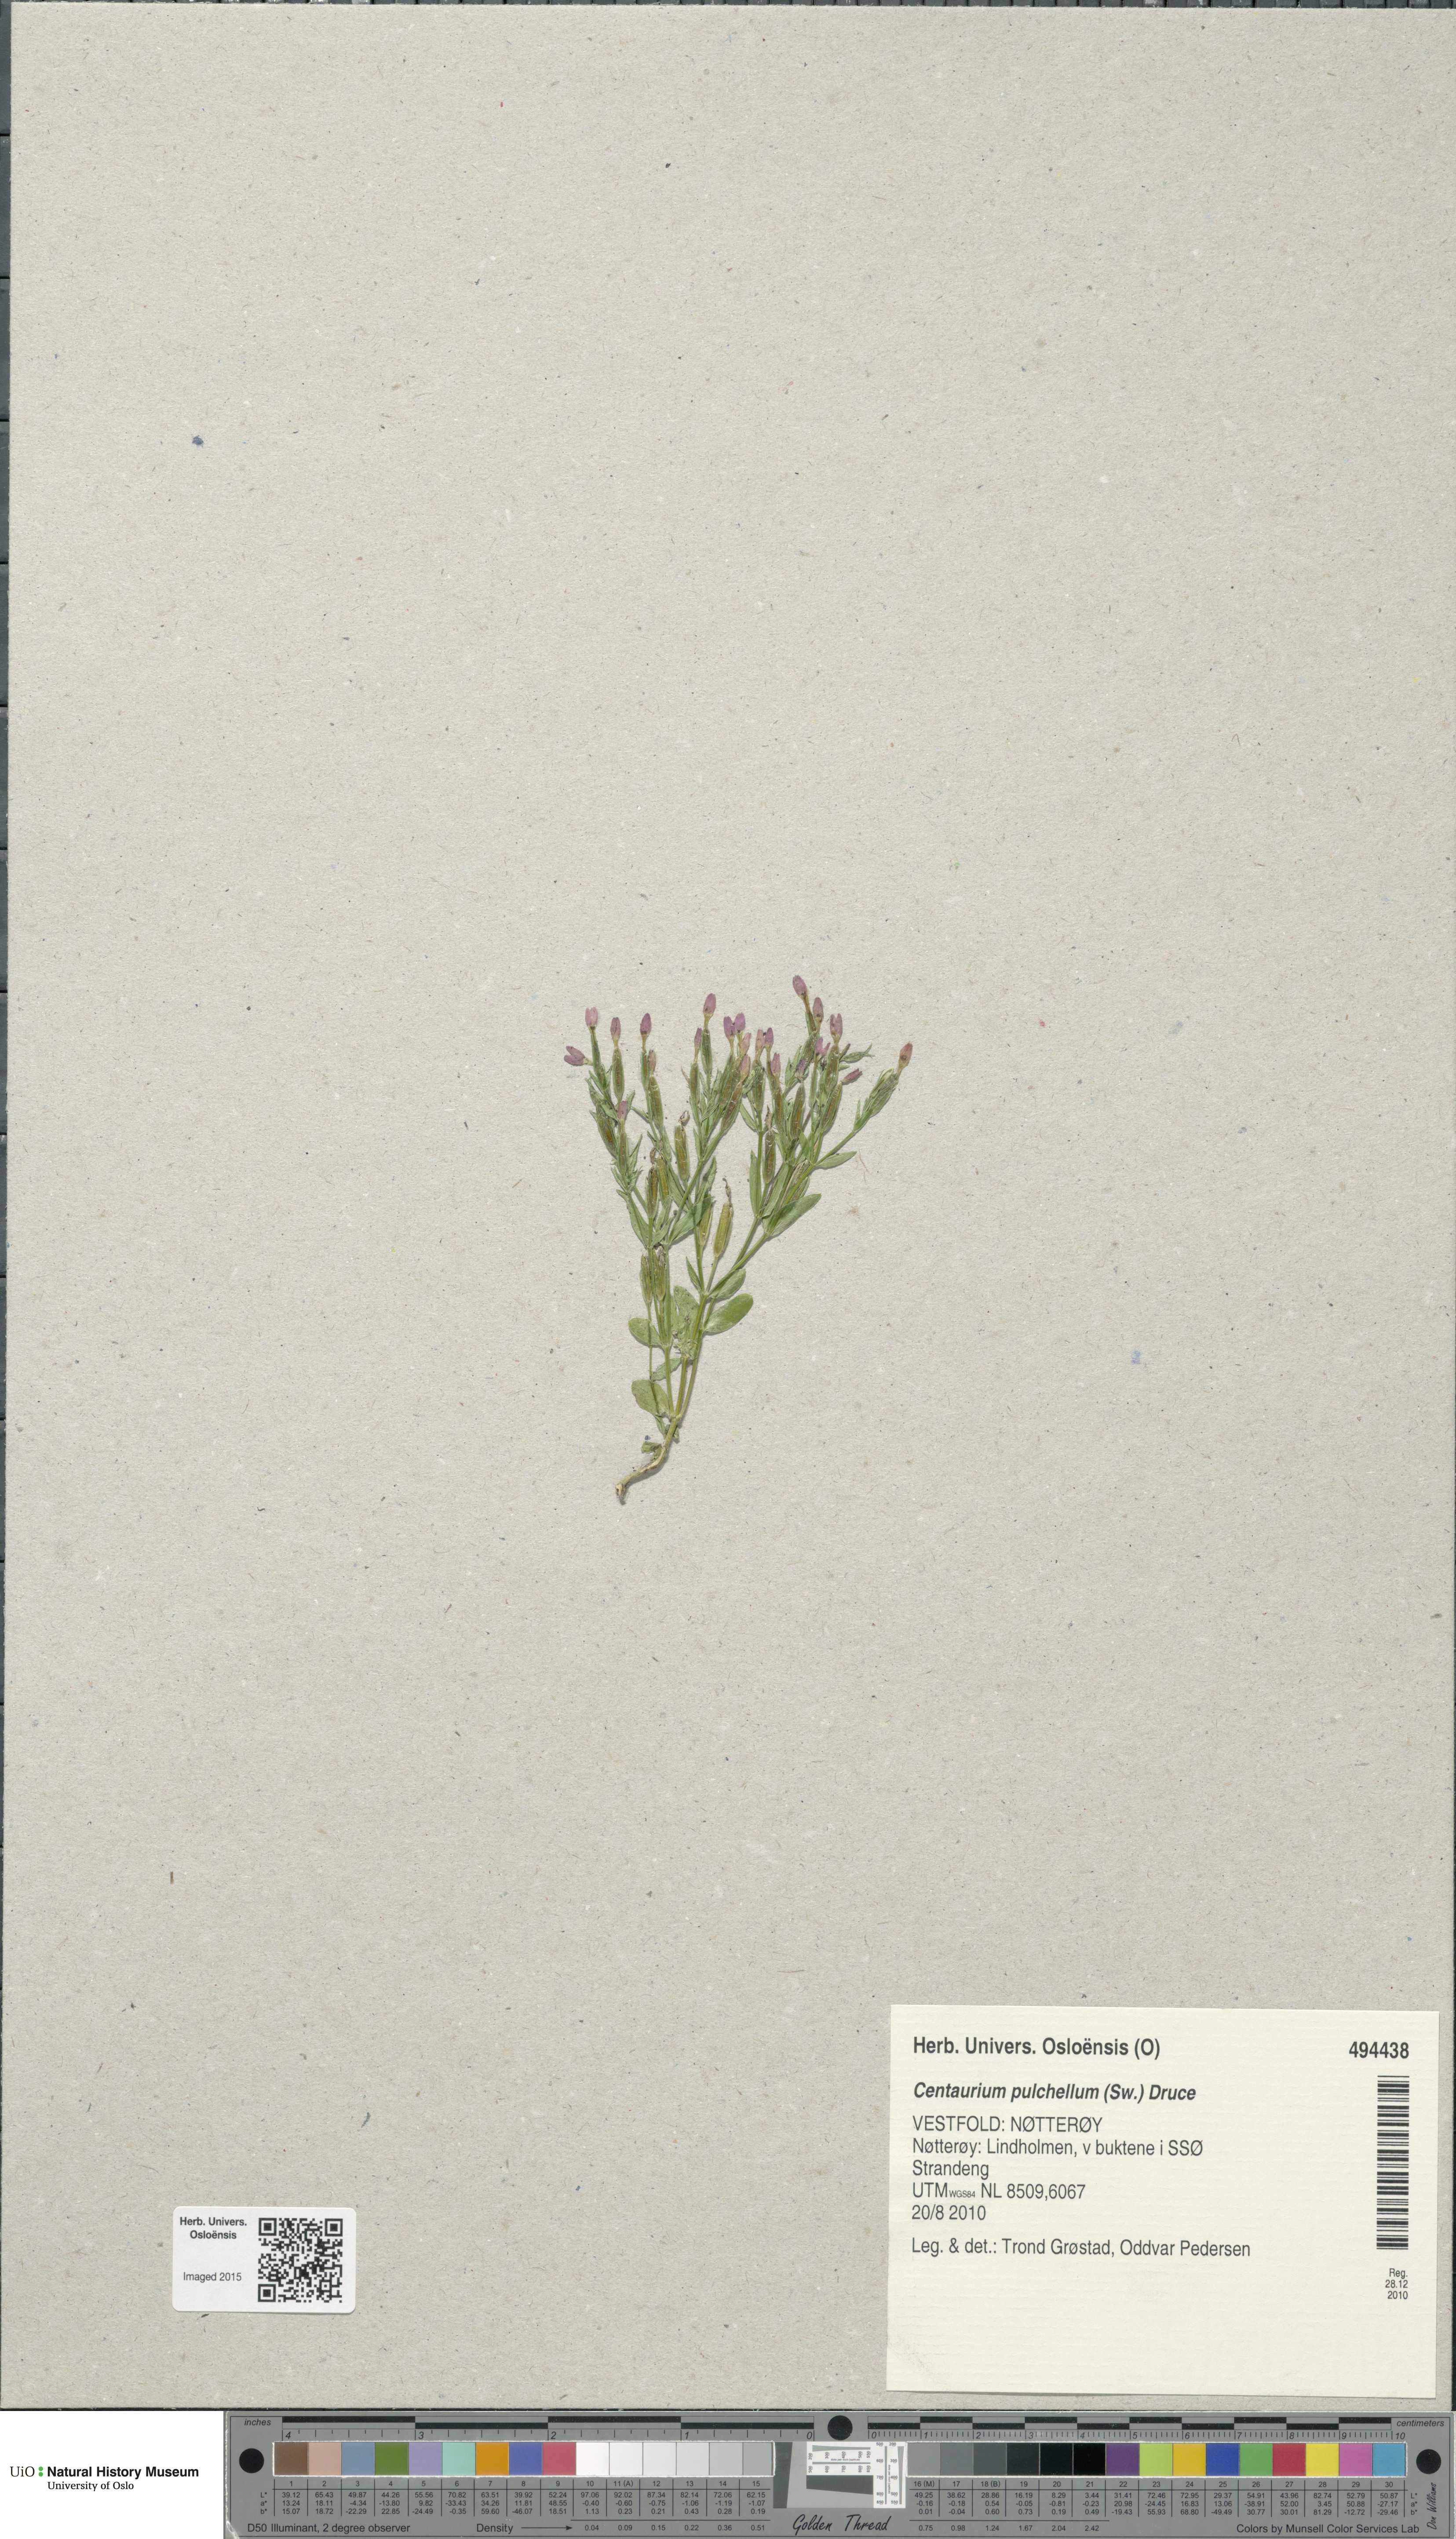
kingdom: Plantae
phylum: Tracheophyta
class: Magnoliopsida
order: Gentianales
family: Gentianaceae
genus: Centaurium
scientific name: Centaurium pulchellum
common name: Lesser centaury
